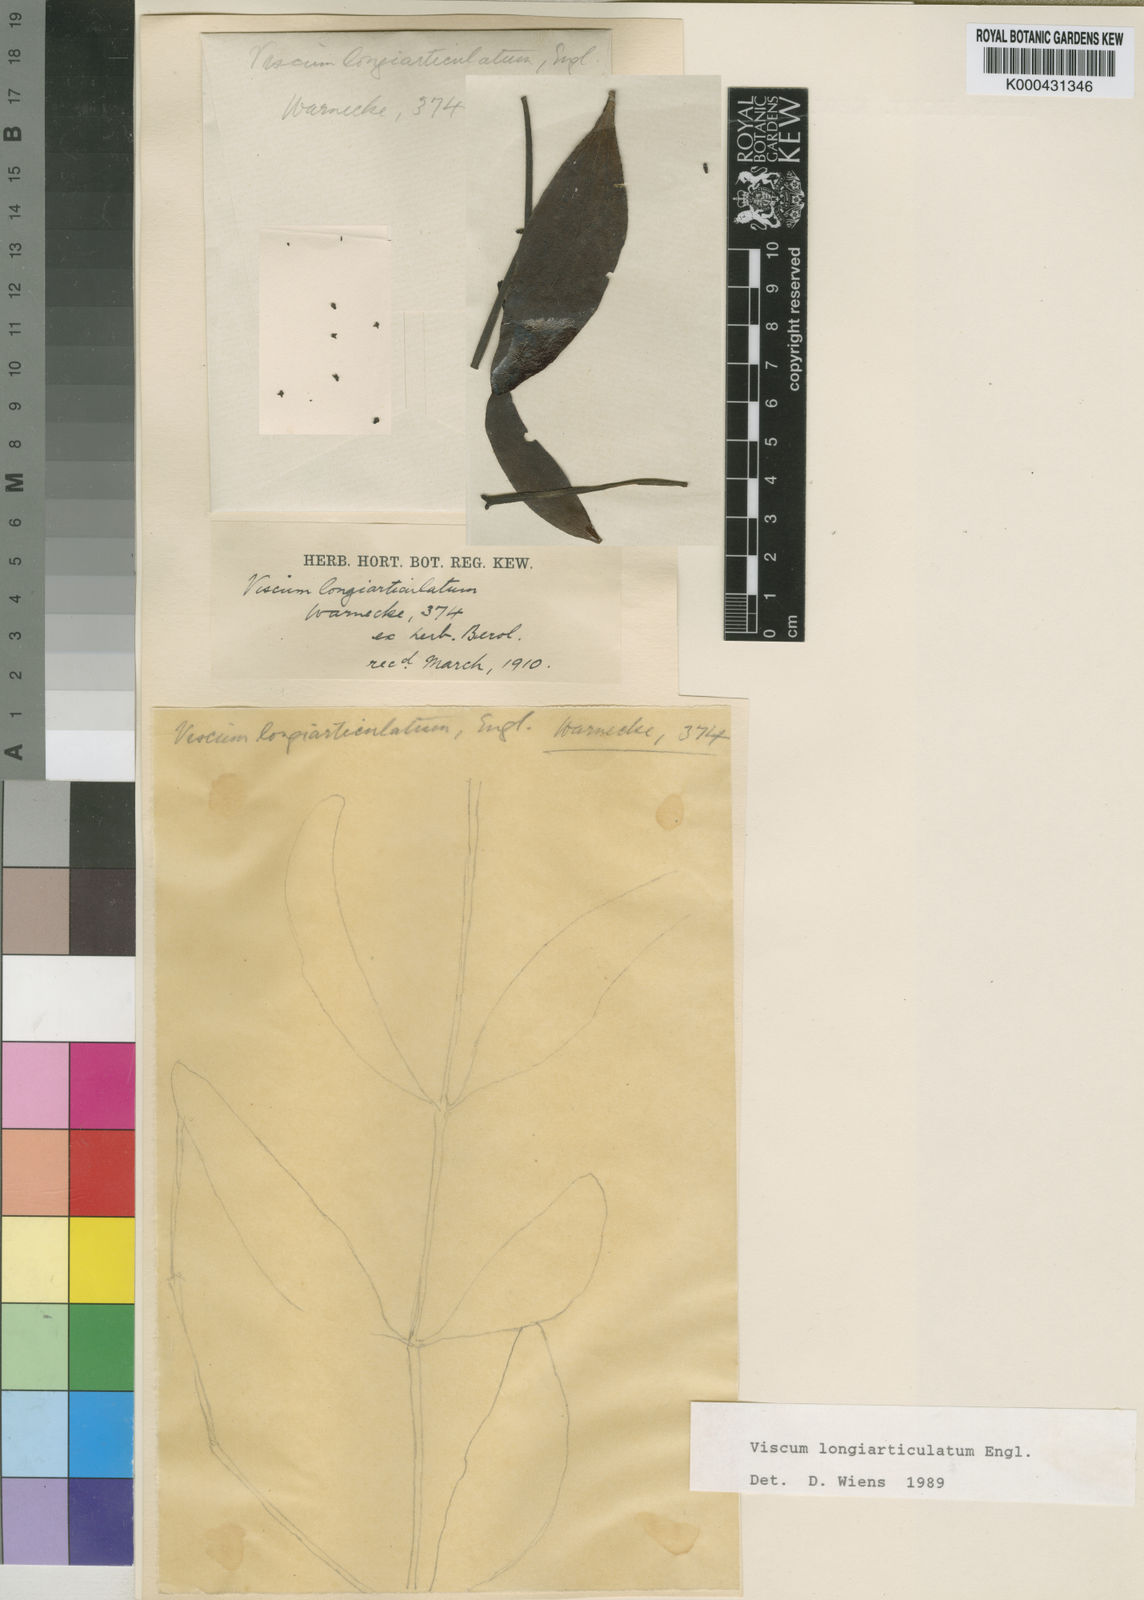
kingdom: Plantae
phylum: Tracheophyta
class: Magnoliopsida
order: Santalales
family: Viscaceae
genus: Viscum
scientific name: Viscum longiarticulatum
